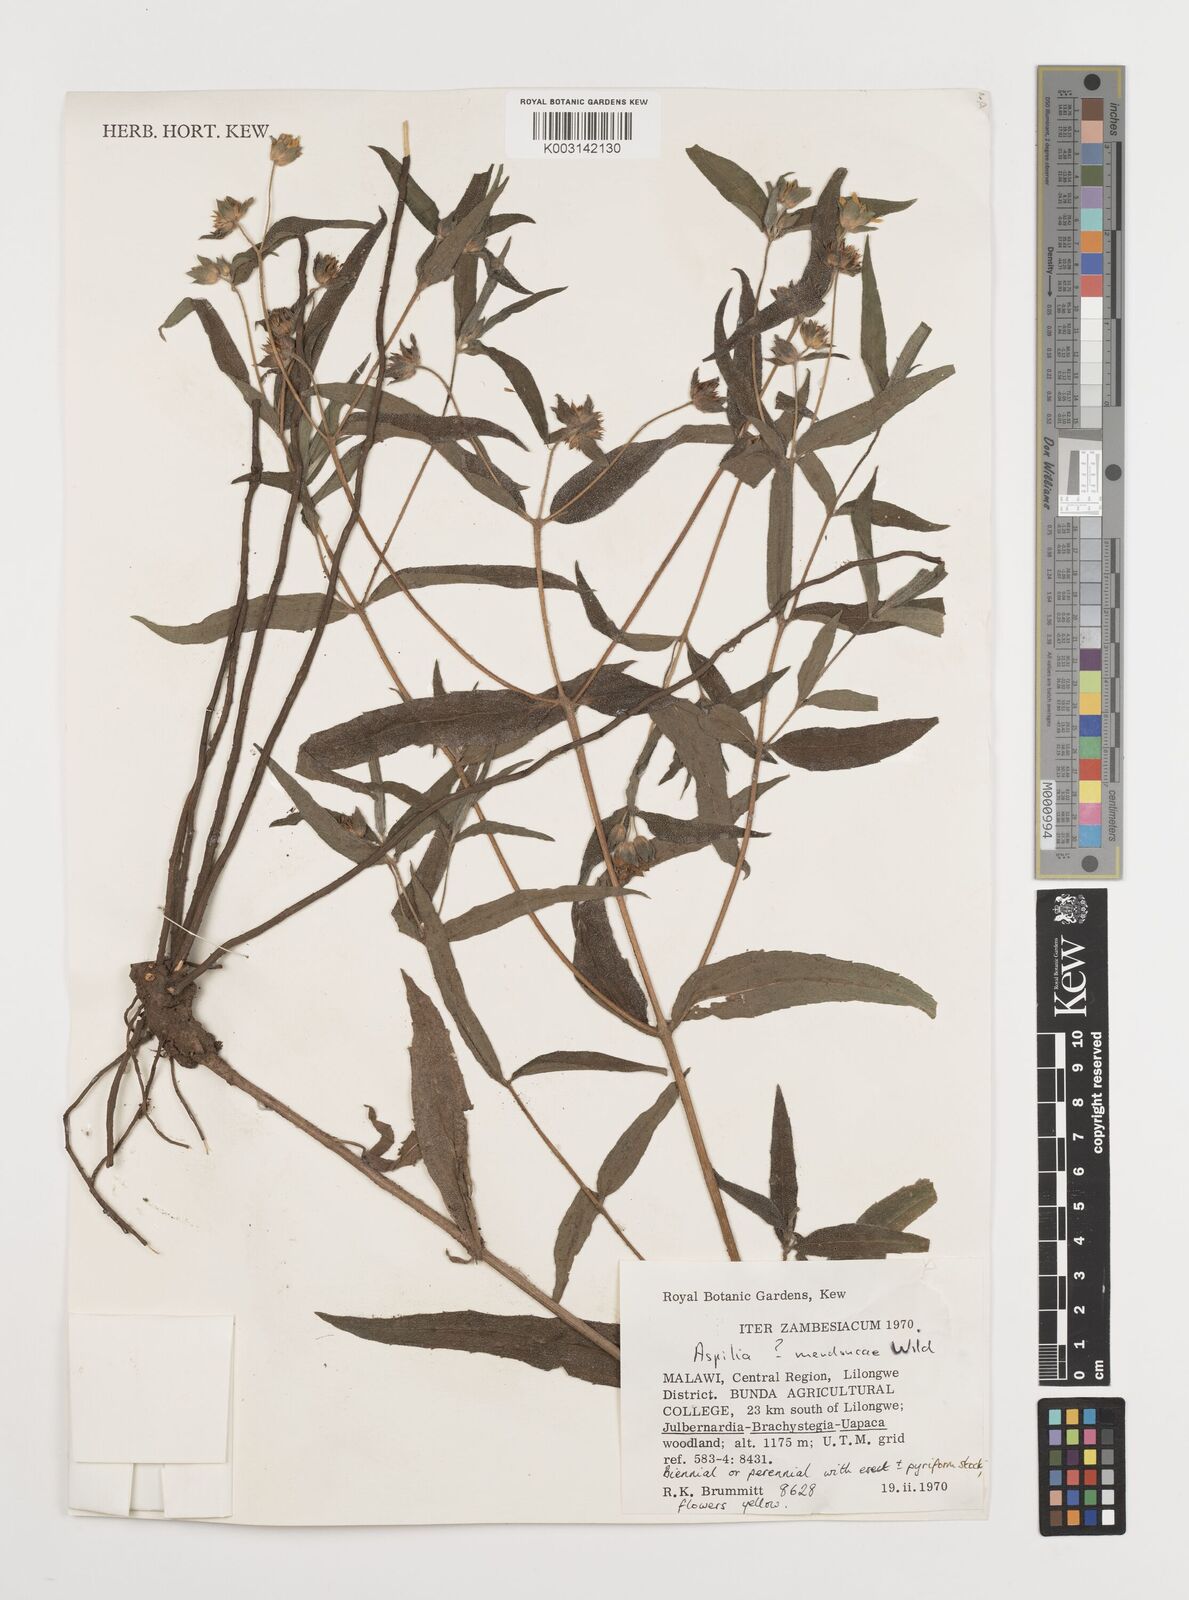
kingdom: Plantae
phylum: Tracheophyta
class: Magnoliopsida
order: Asterales
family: Asteraceae
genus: Aspilia
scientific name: Aspilia mendoncae
